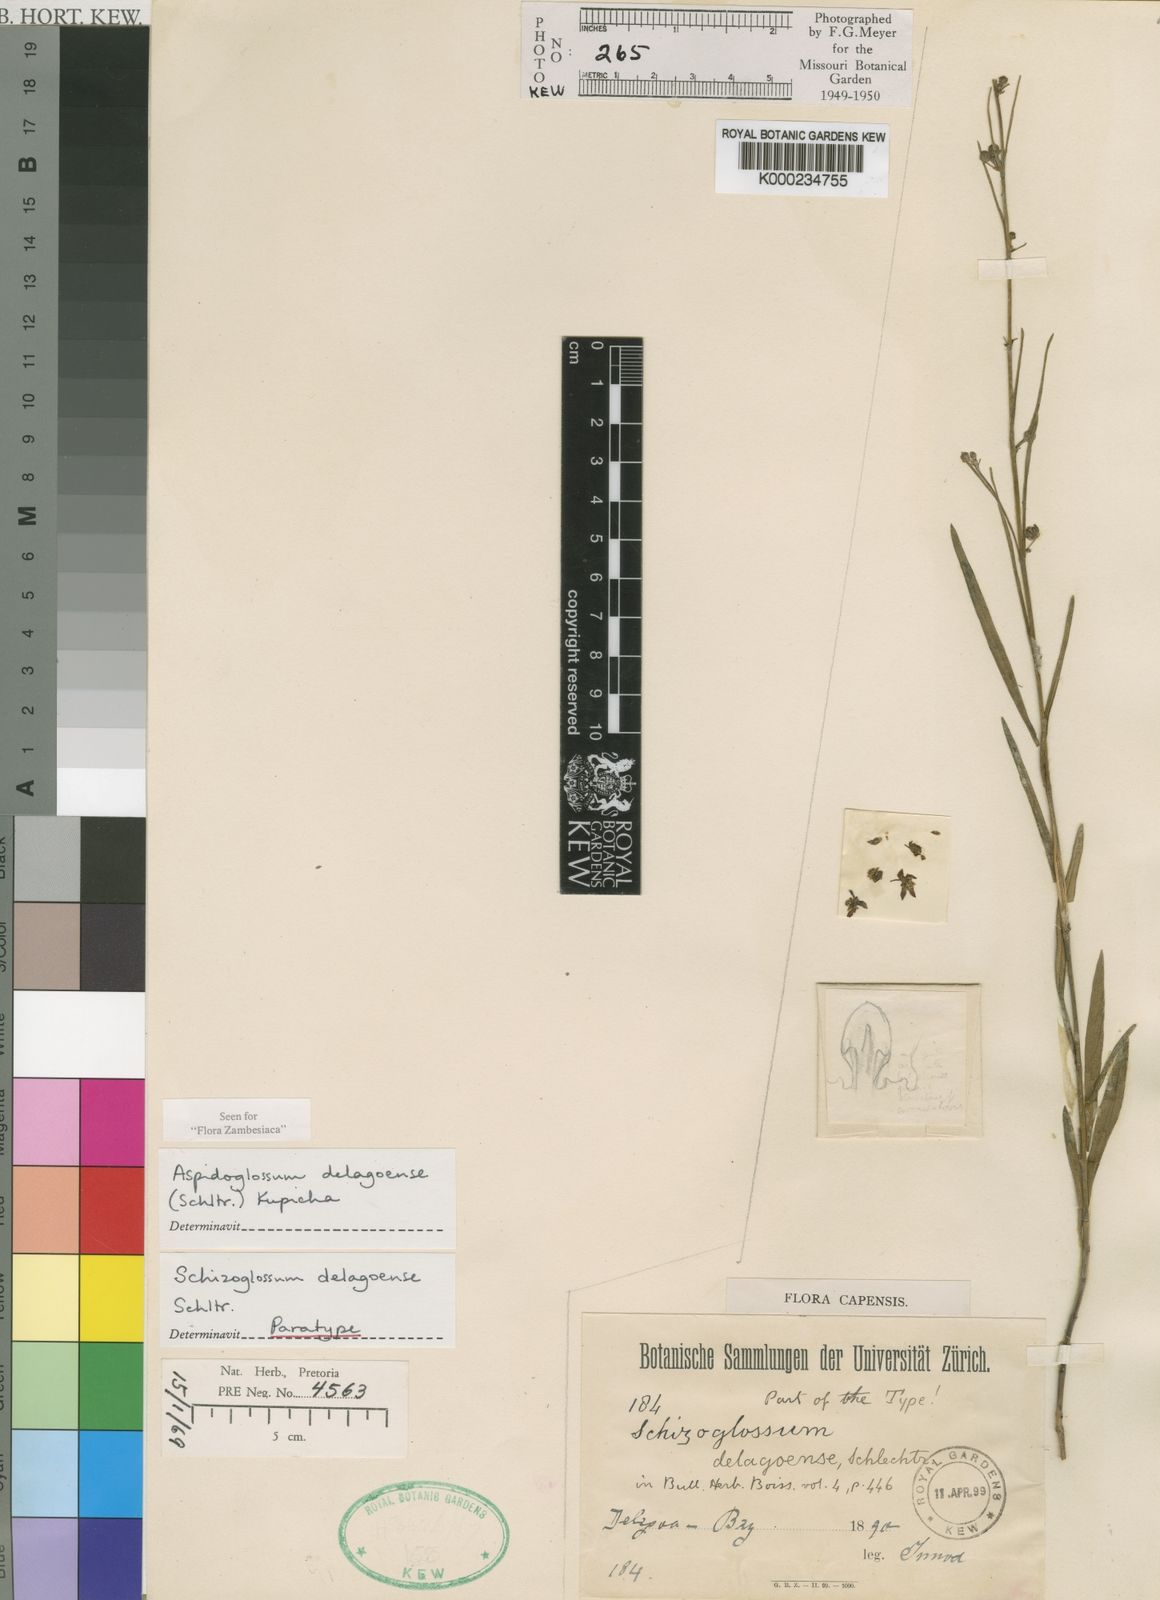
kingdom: Plantae
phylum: Tracheophyta
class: Magnoliopsida
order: Gentianales
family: Apocynaceae
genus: Aspidoglossum
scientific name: Aspidoglossum delagoense
